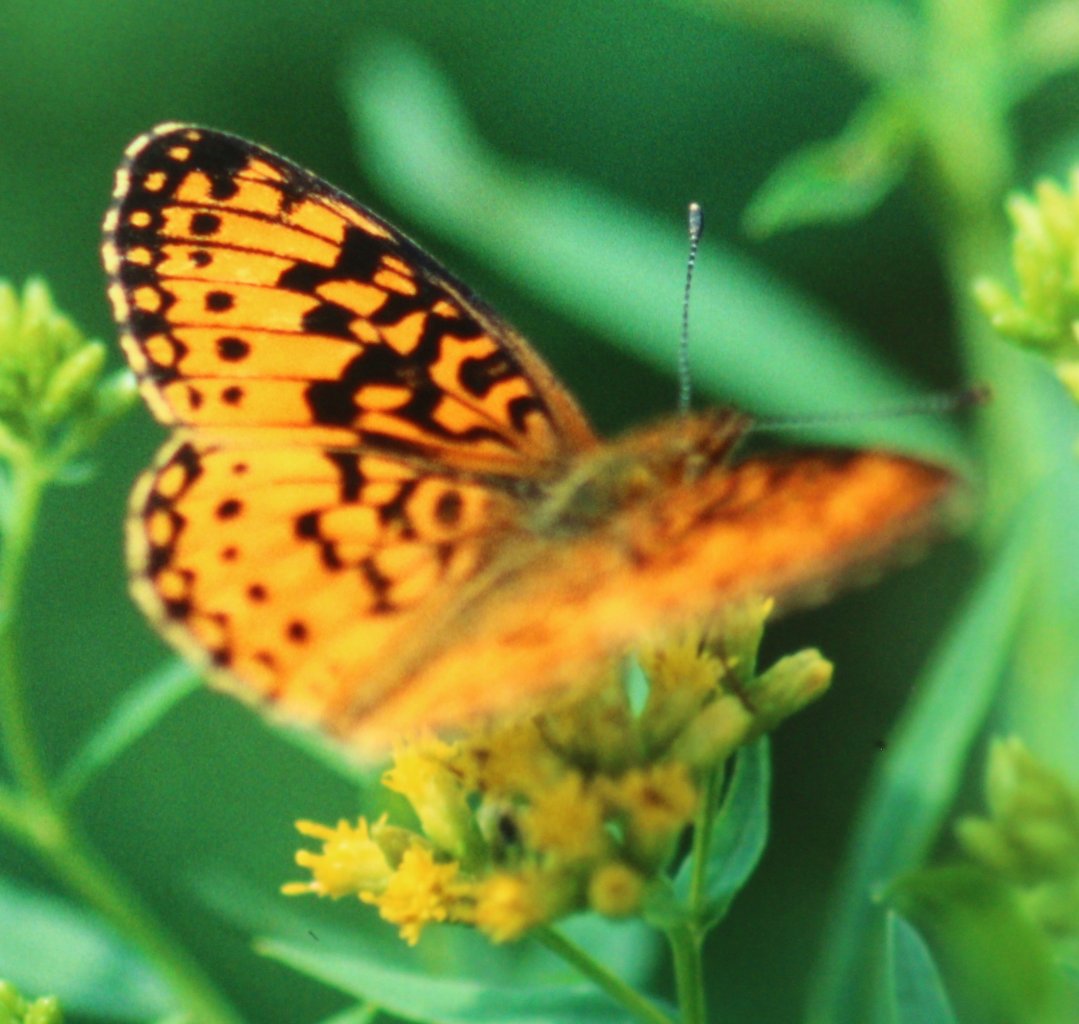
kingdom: Animalia
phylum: Arthropoda
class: Insecta
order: Lepidoptera
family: Nymphalidae
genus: Boloria
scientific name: Boloria selene
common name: Silver-bordered Fritillary
